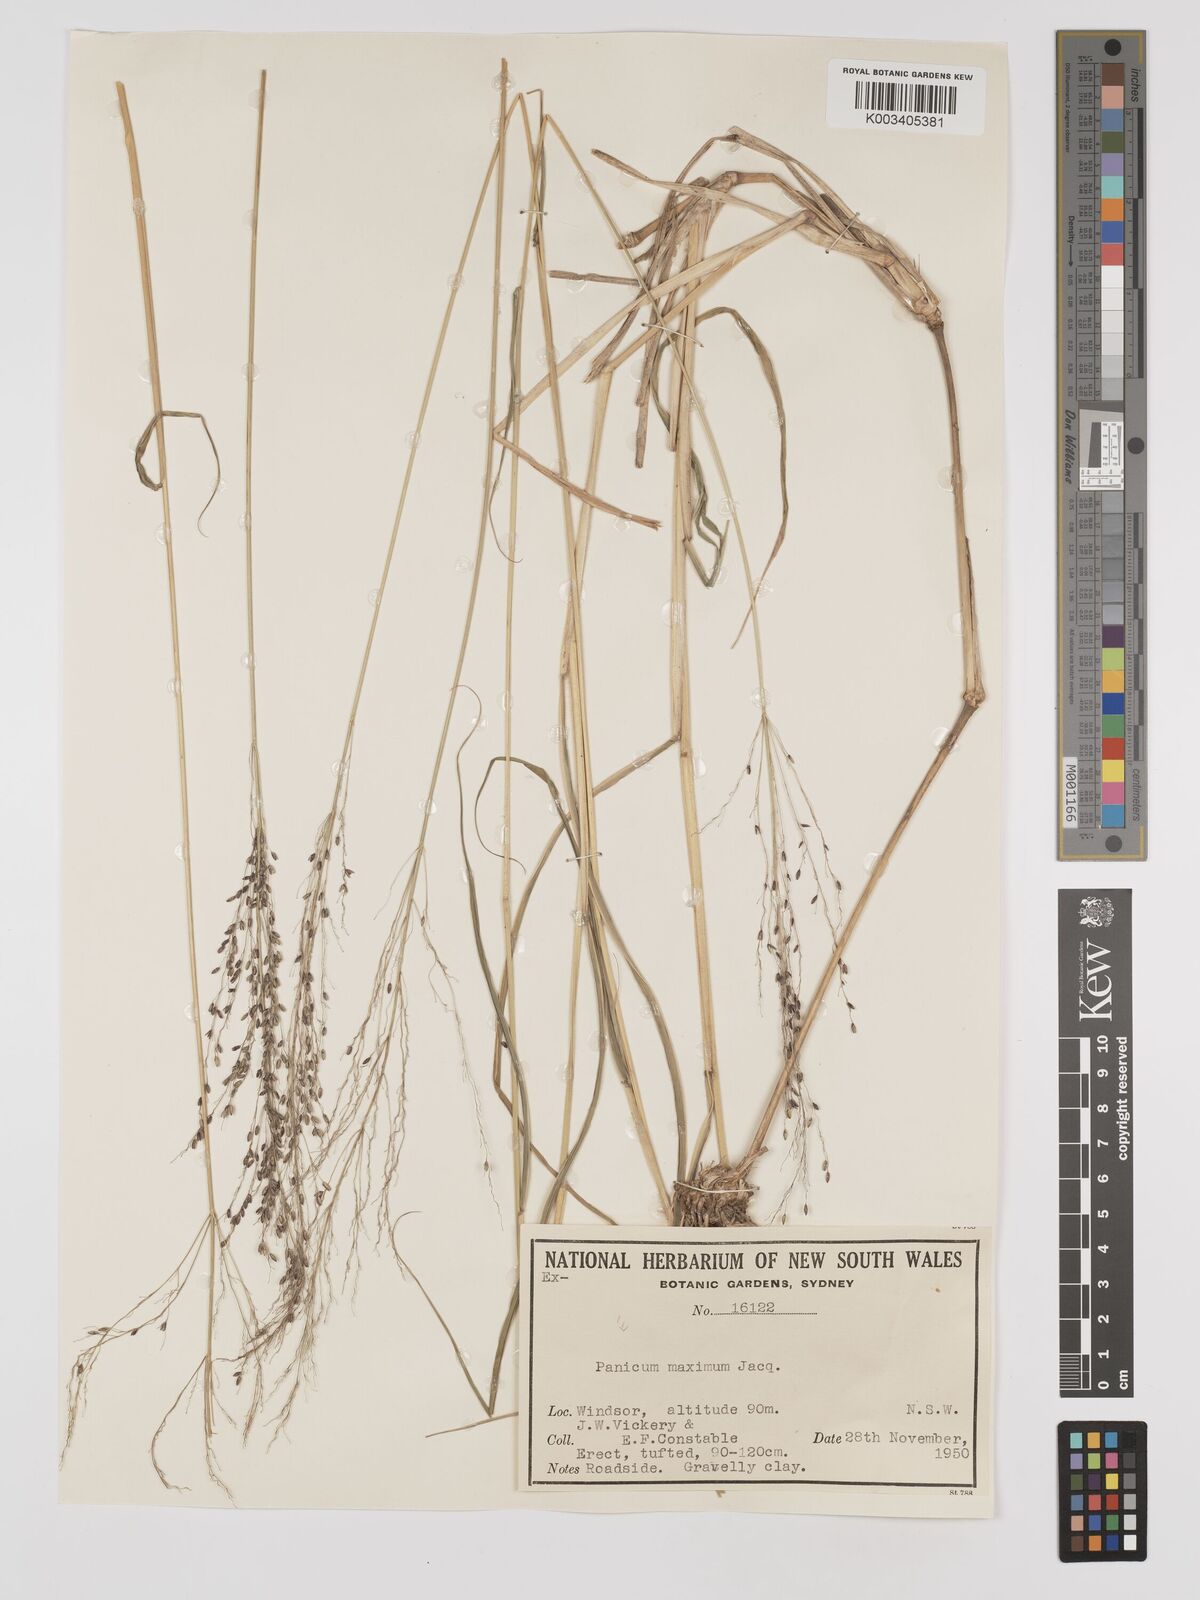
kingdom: Plantae
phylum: Tracheophyta
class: Liliopsida
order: Poales
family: Poaceae
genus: Megathyrsus
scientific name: Megathyrsus maximus
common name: Guineagrass
